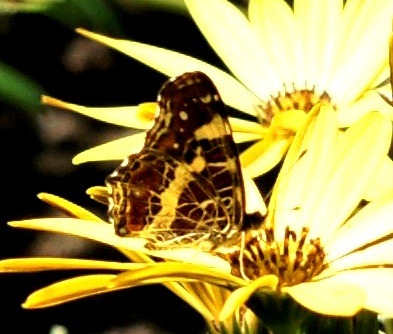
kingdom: Animalia
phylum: Arthropoda
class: Insecta
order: Lepidoptera
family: Nymphalidae
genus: Araschnia
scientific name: Araschnia levana
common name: Nældesommerfugl
